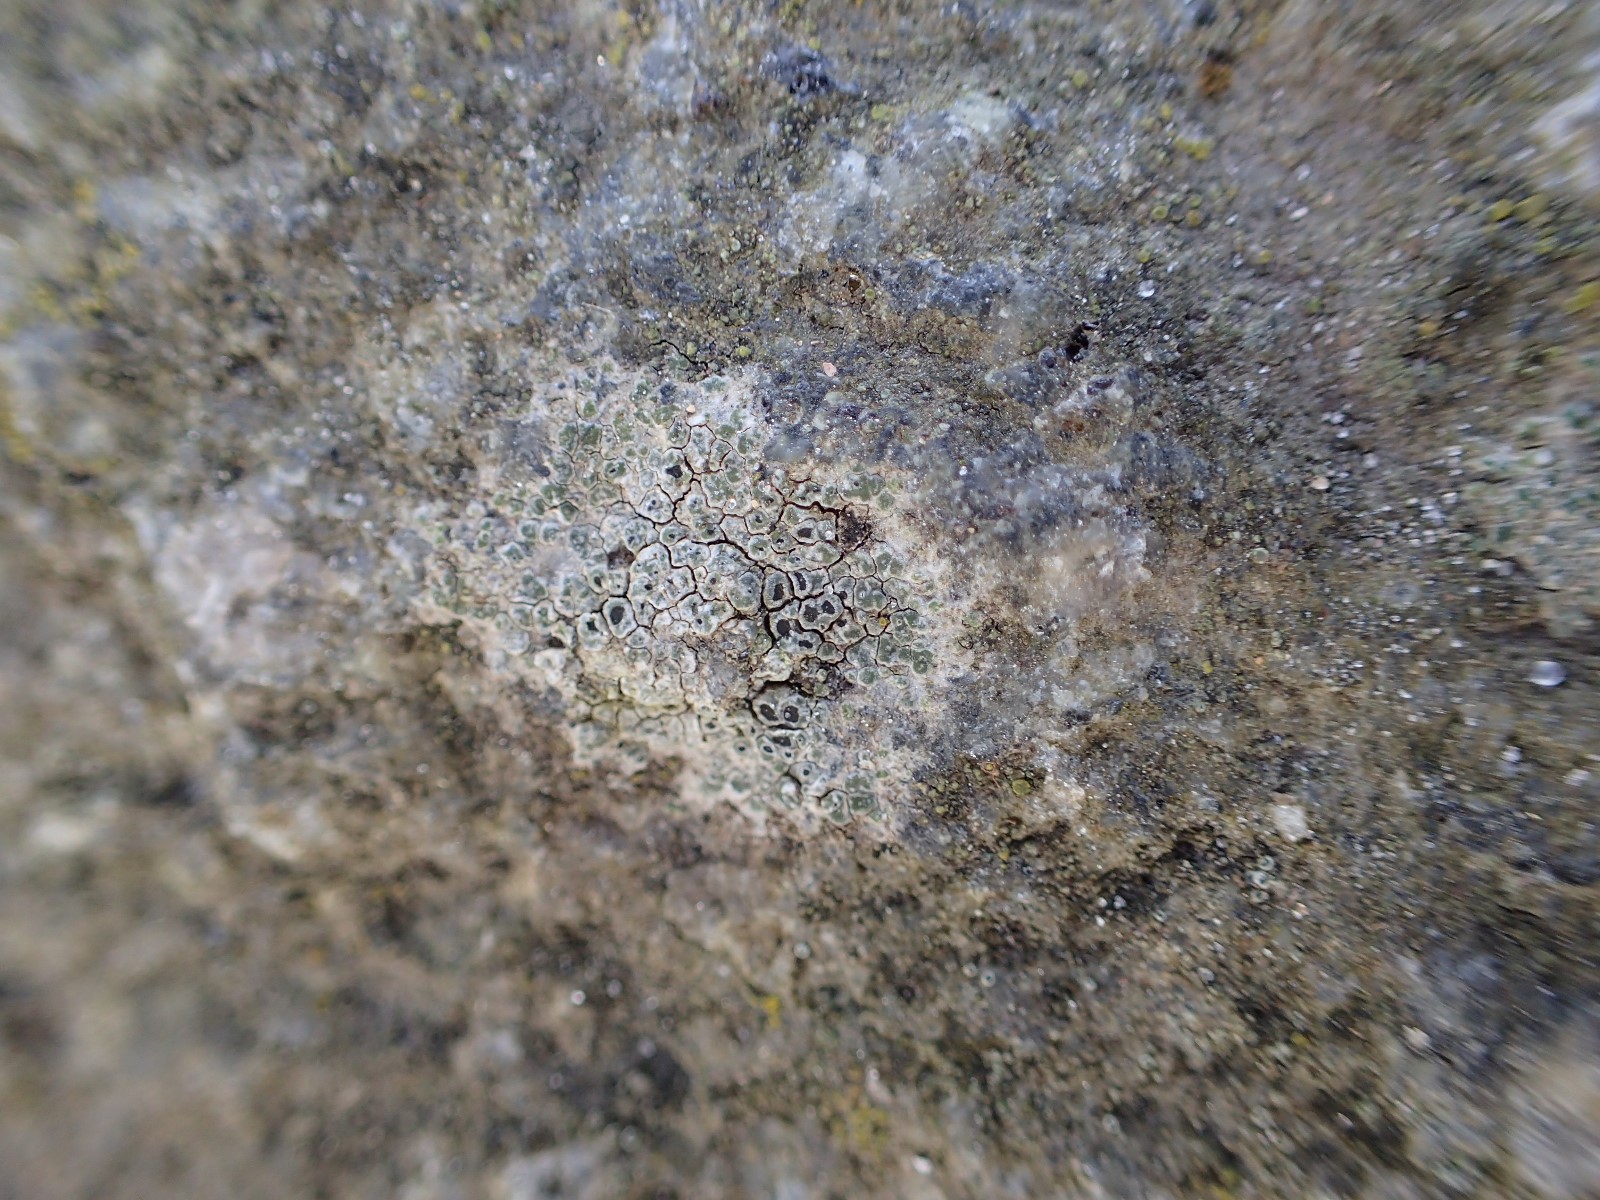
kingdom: Fungi
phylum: Ascomycota
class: Lecanoromycetes
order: Pertusariales
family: Megasporaceae
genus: Circinaria
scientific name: Circinaria contorta
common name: indviklet hulskivelav
